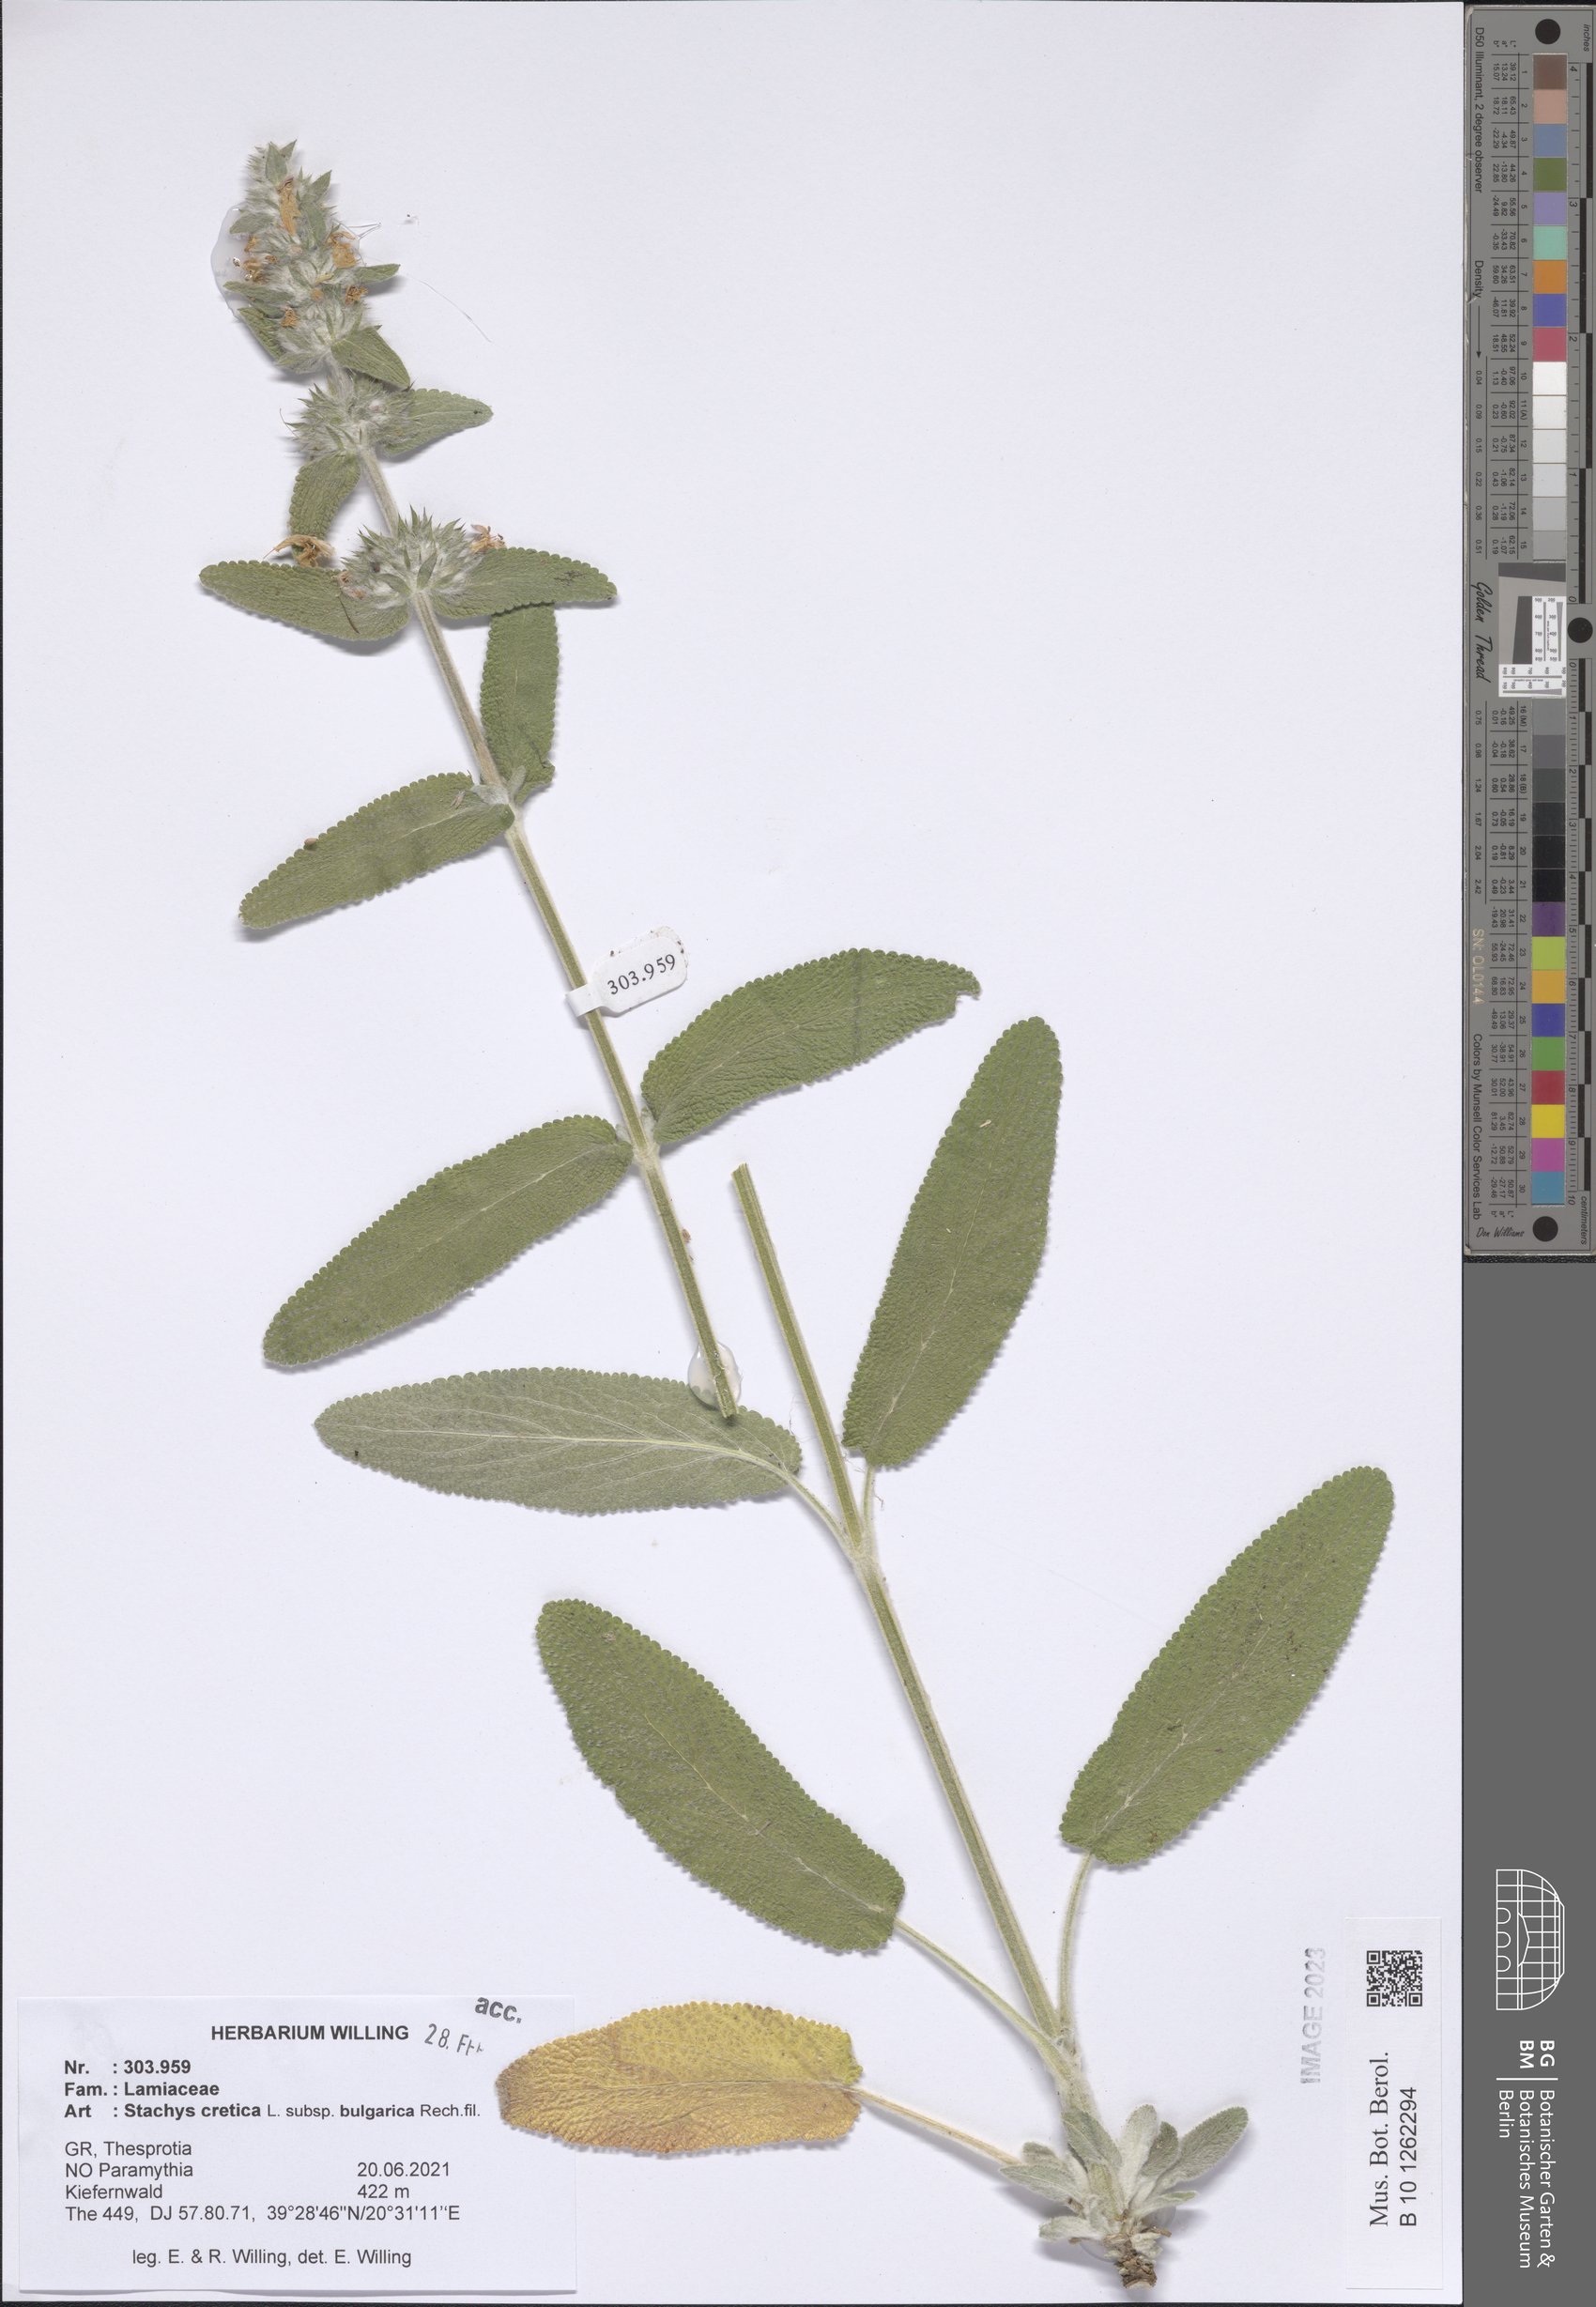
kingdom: Plantae
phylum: Tracheophyta
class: Magnoliopsida
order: Lamiales
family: Lamiaceae
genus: Stachys
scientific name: Stachys cretica
